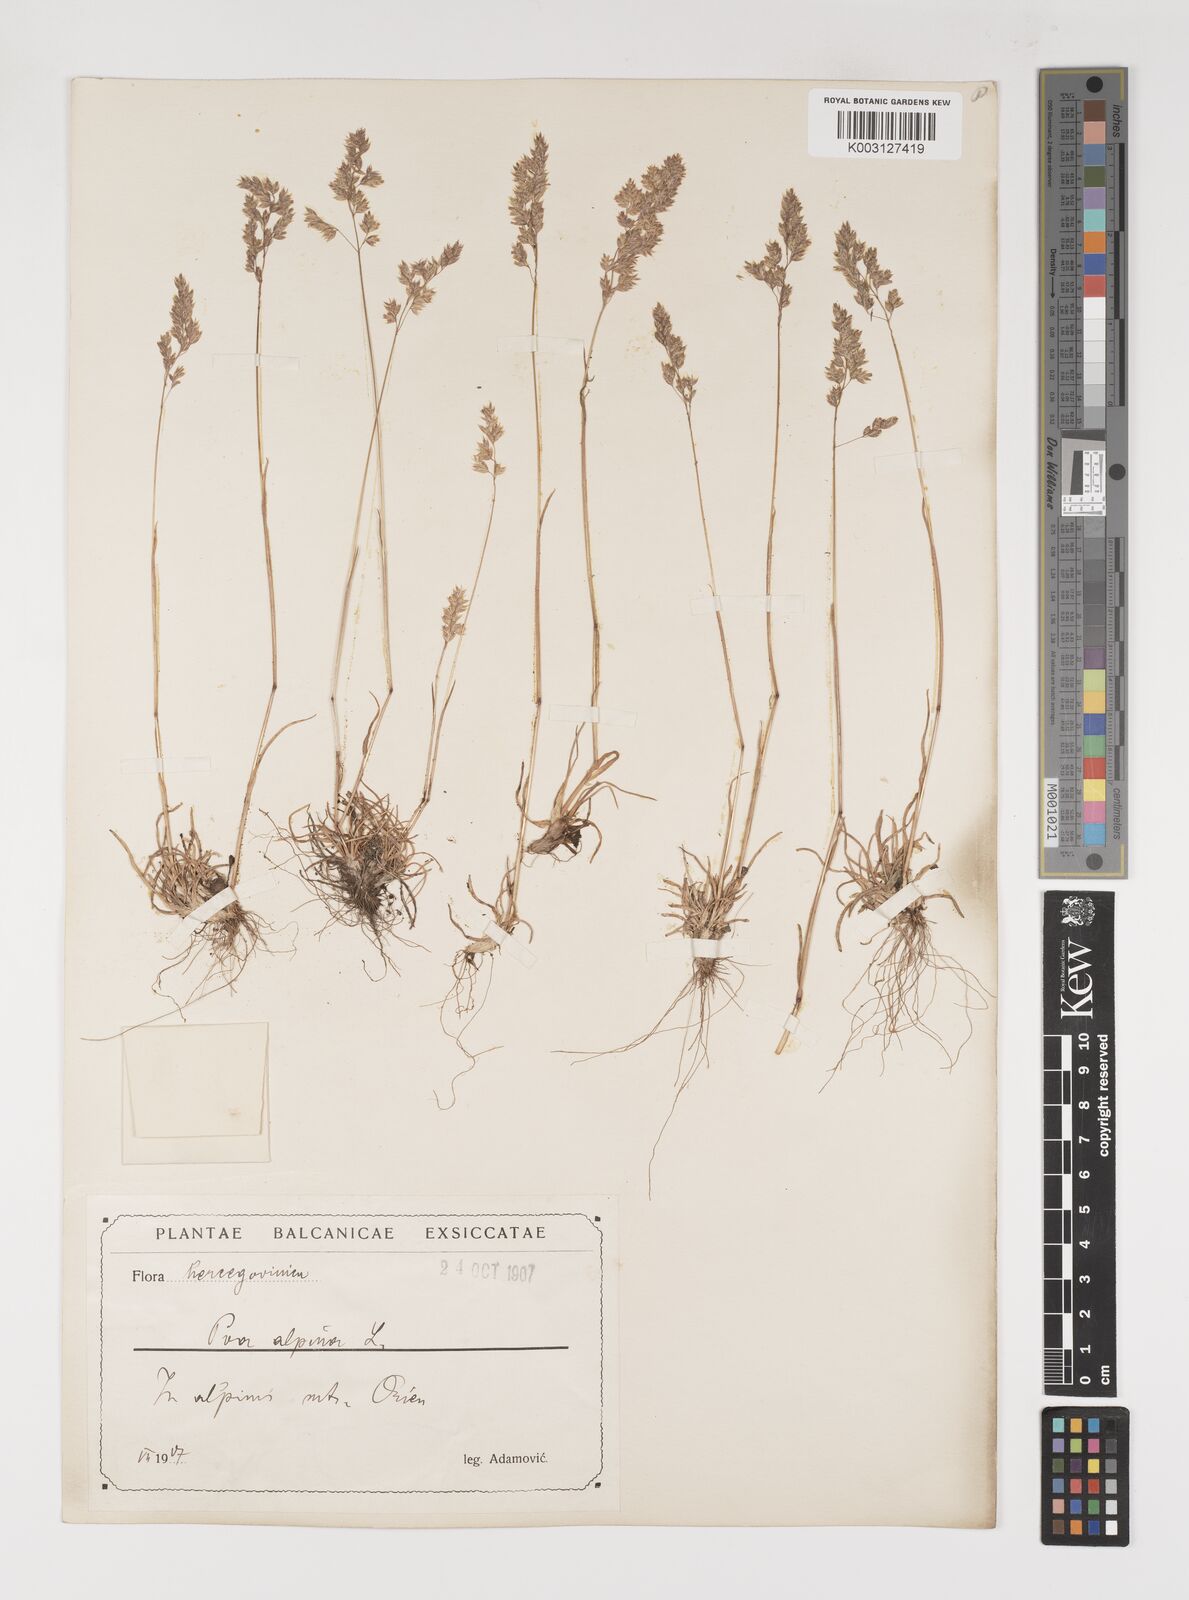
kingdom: Plantae
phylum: Tracheophyta
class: Liliopsida
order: Poales
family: Poaceae
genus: Poa
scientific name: Poa alpina
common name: Alpine bluegrass
